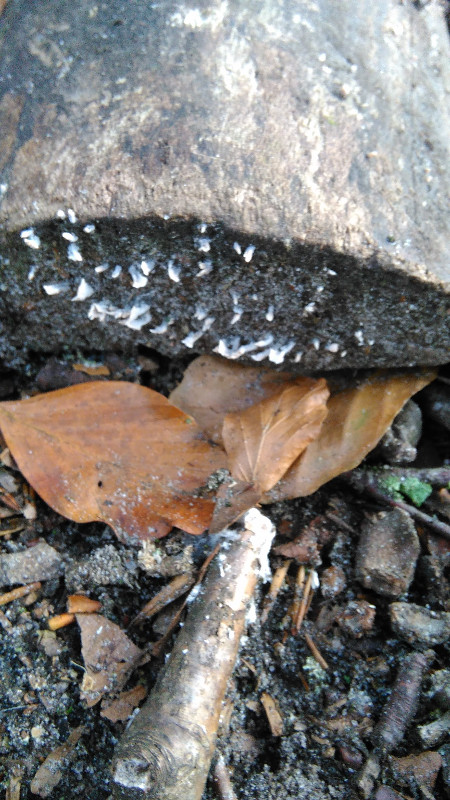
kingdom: Fungi
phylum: Ascomycota
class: Sordariomycetes
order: Xylariales
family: Xylariaceae
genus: Xylaria
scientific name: Xylaria hypoxylon
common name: grenet stødsvamp
